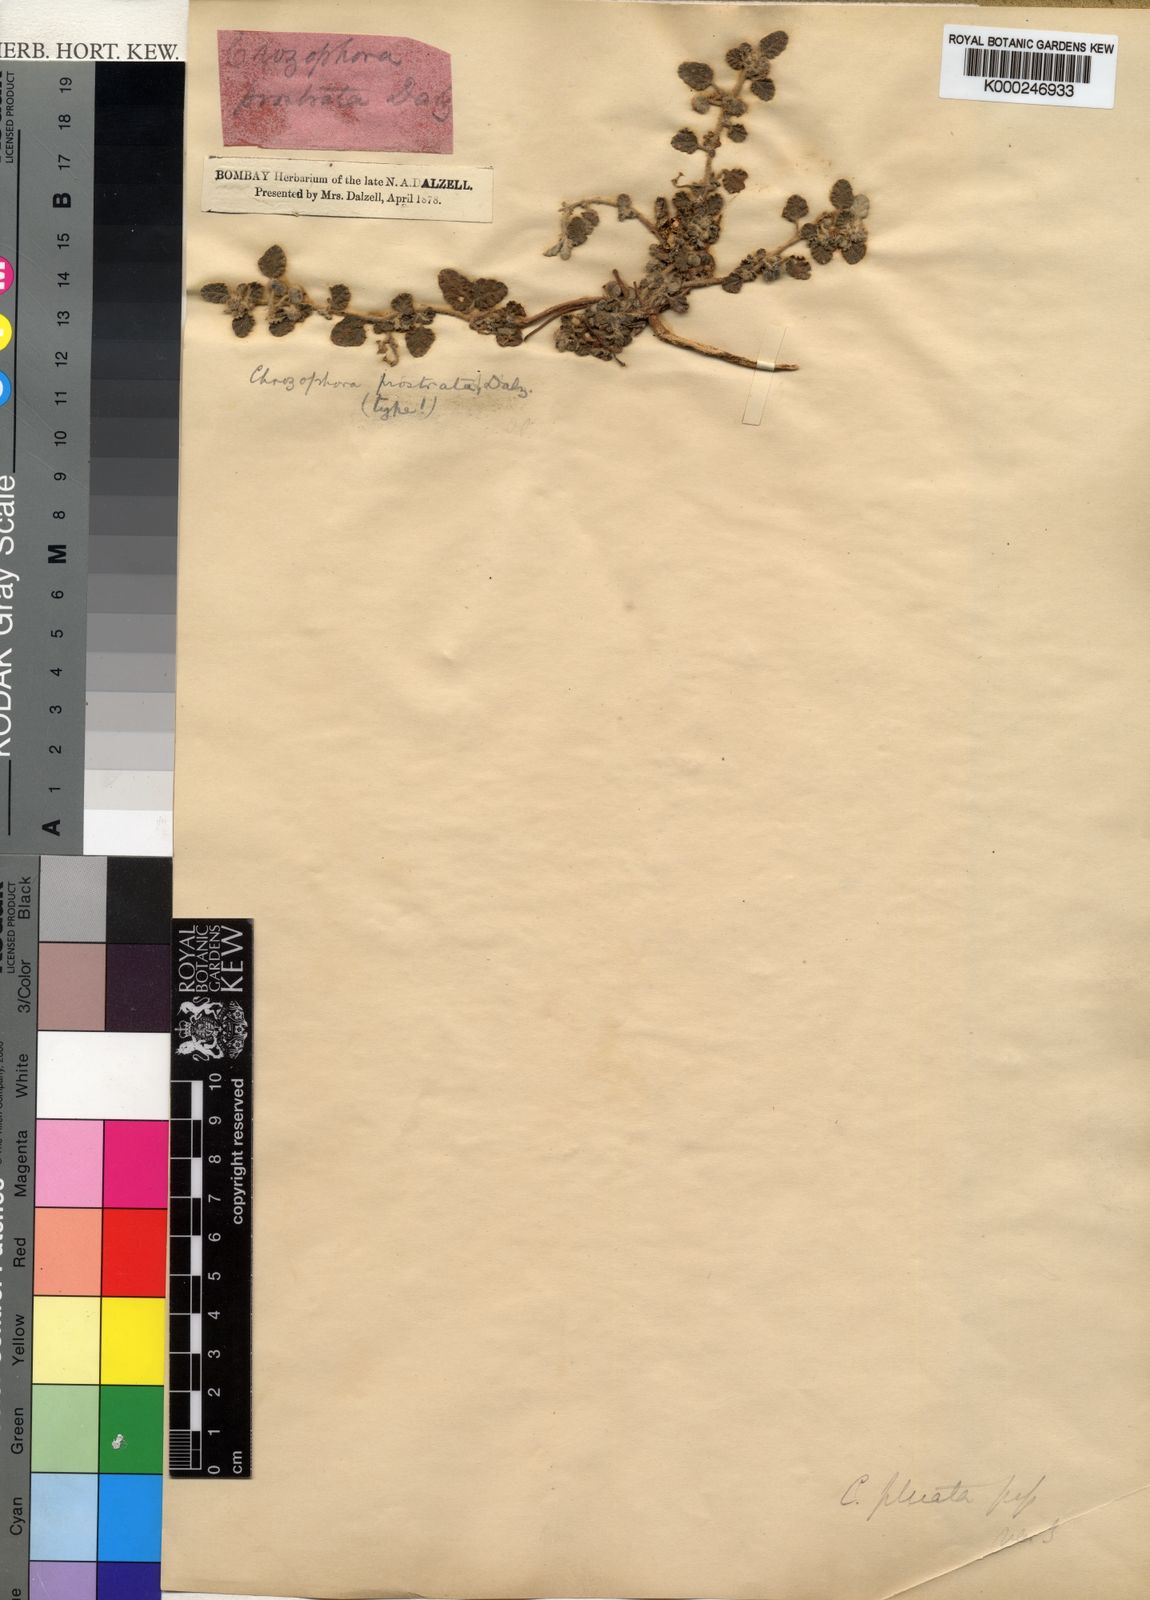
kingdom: Plantae
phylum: Tracheophyta
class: Magnoliopsida
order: Malpighiales
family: Euphorbiaceae
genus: Chrozophora
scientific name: Chrozophora plicata
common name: Giradol
